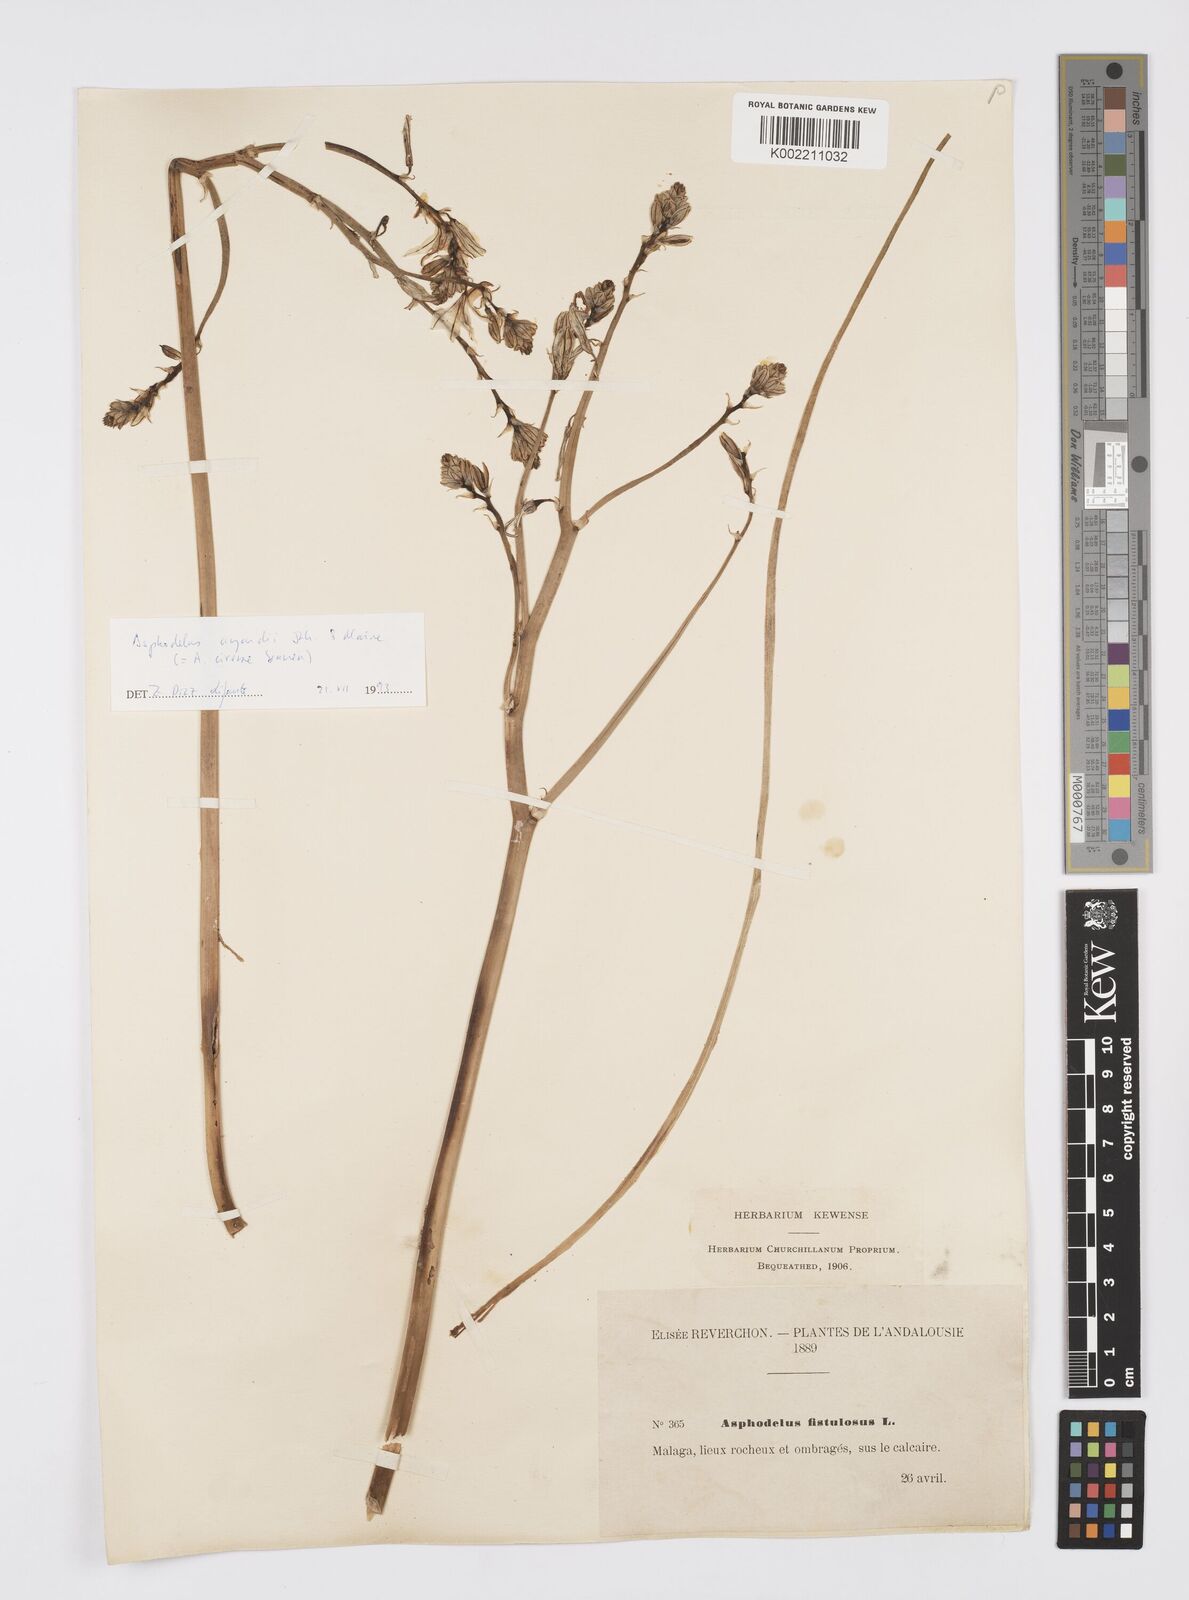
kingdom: Plantae
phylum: Tracheophyta
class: Liliopsida
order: Asparagales
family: Asphodelaceae
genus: Asphodelus
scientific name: Asphodelus fistulosus
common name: Onionweed
